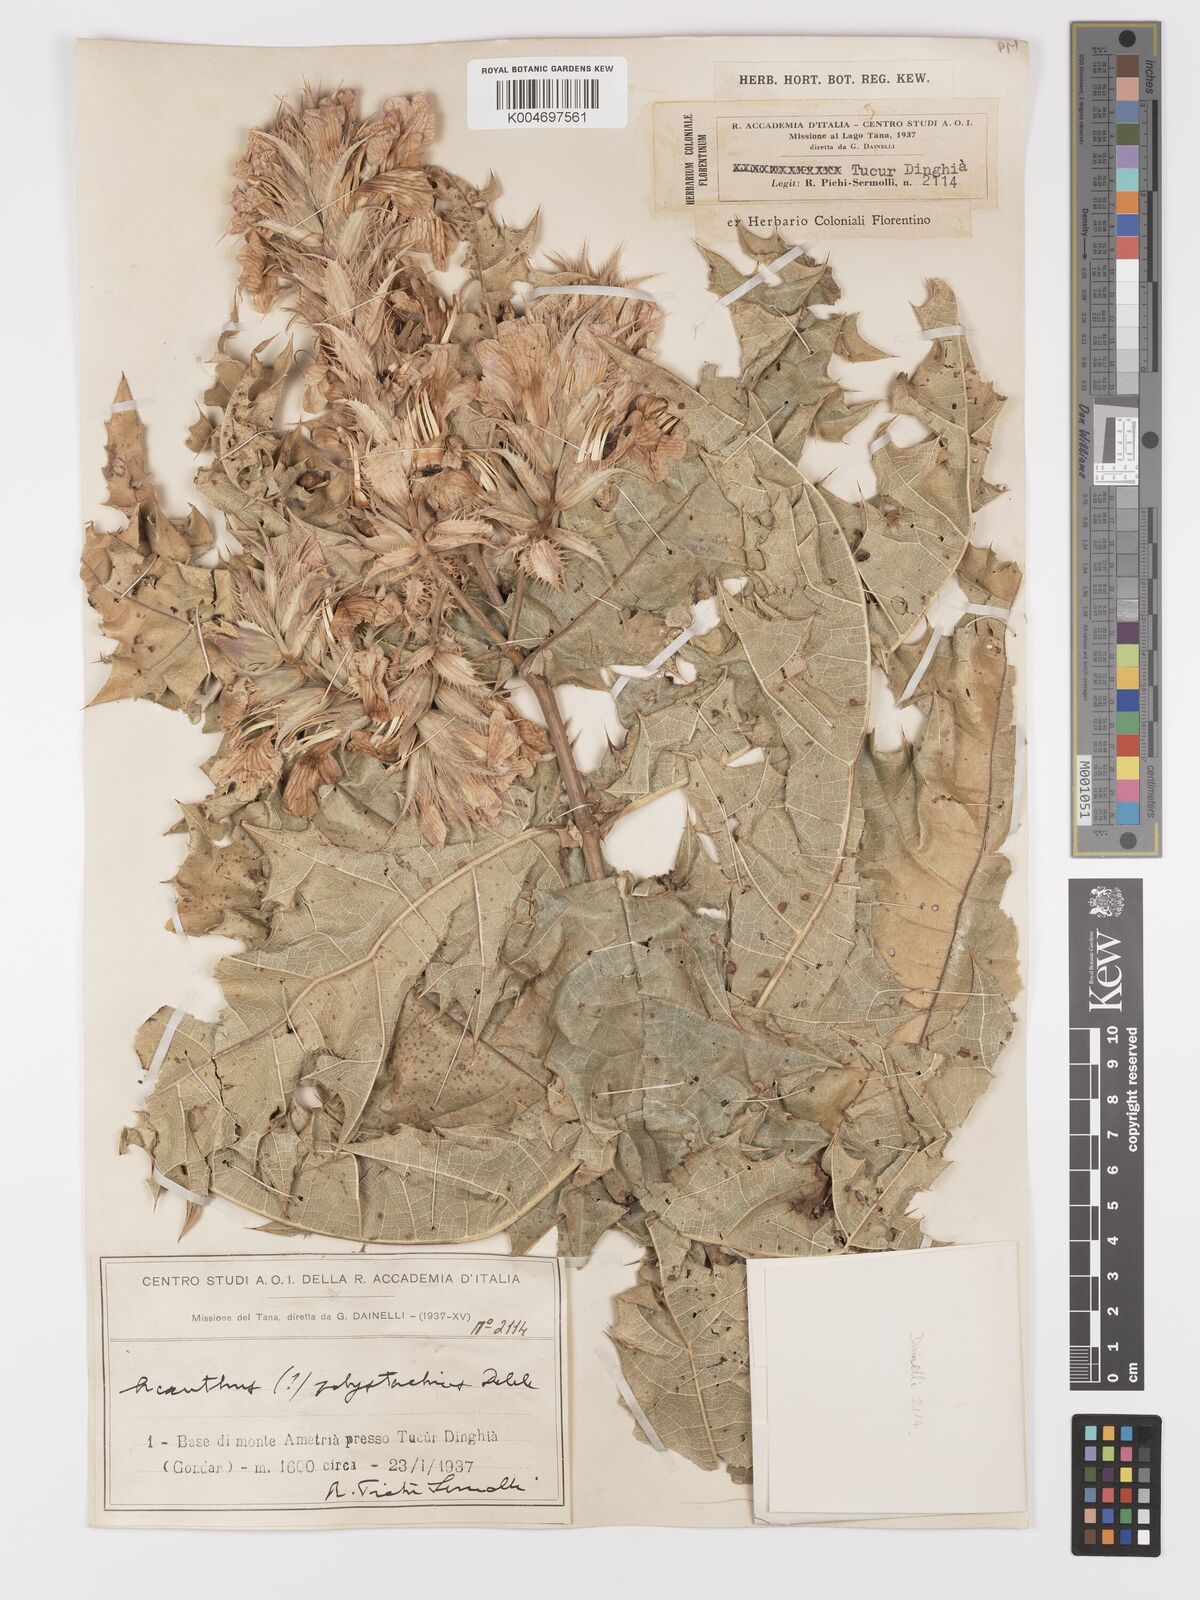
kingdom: Plantae
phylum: Tracheophyta
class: Magnoliopsida
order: Lamiales
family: Acanthaceae
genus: Acanthus
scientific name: Acanthus polystachyus
